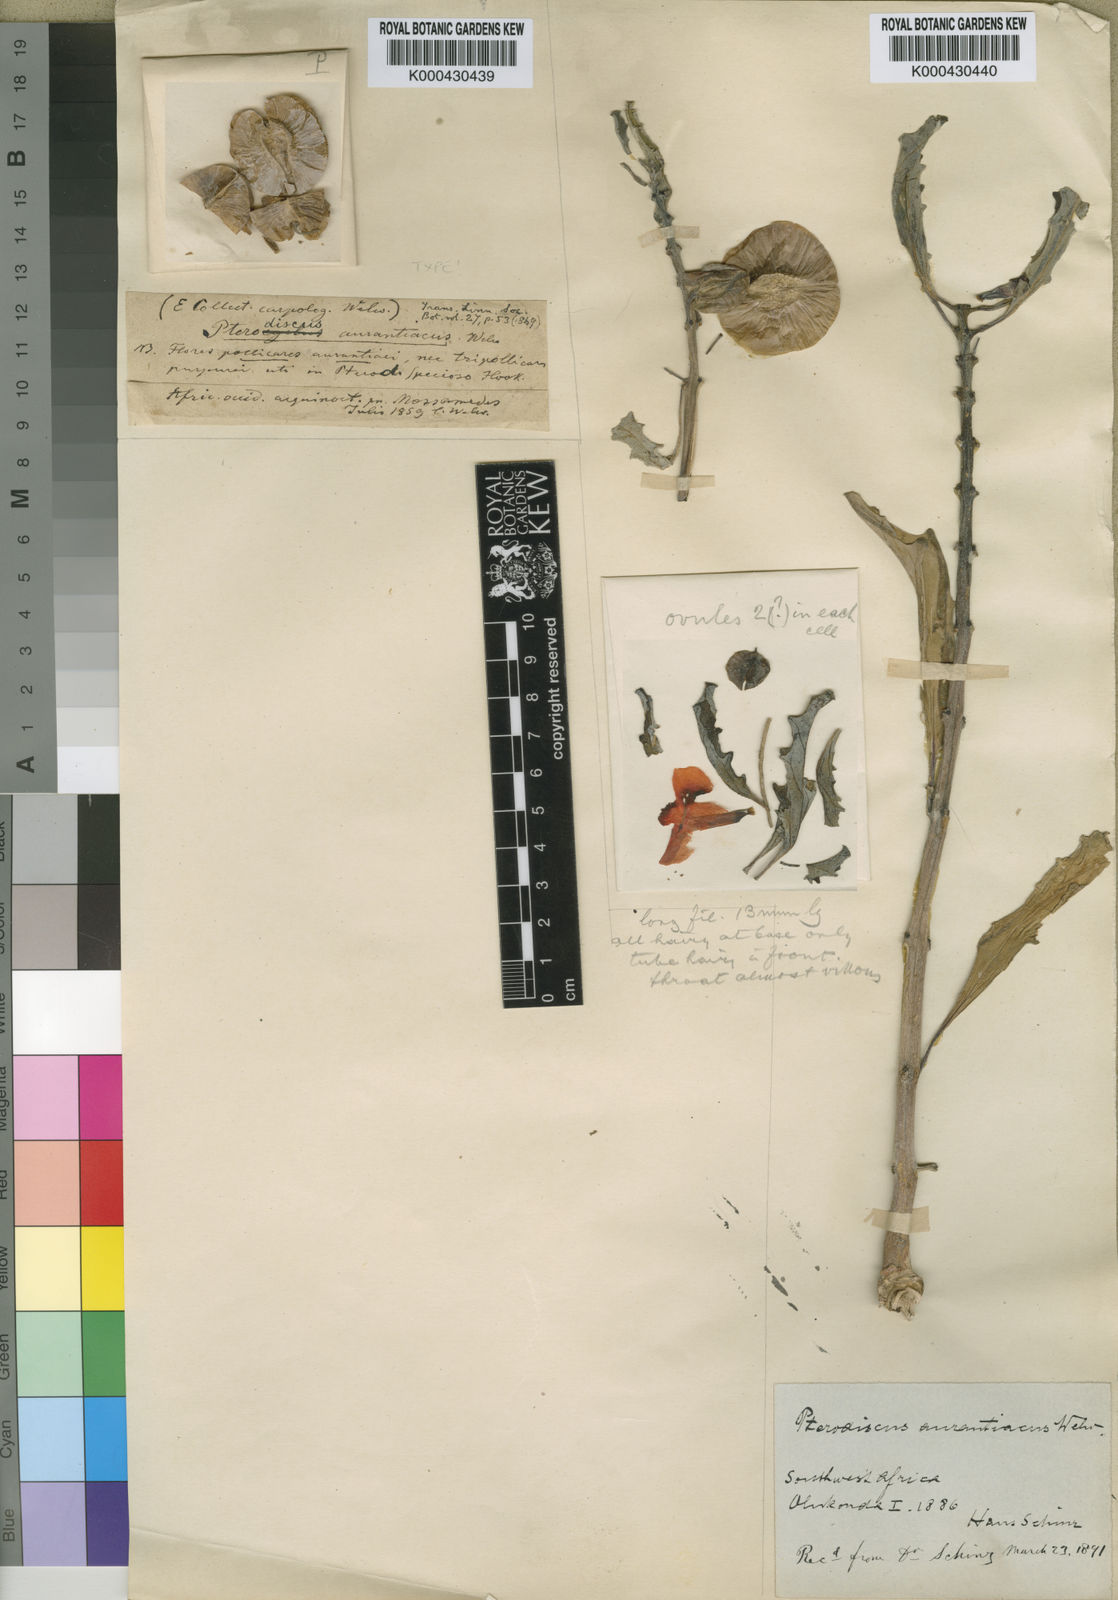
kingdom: Plantae
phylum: Tracheophyta
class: Magnoliopsida
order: Lamiales
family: Pedaliaceae
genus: Pterodiscus
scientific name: Pterodiscus aurantiacus
